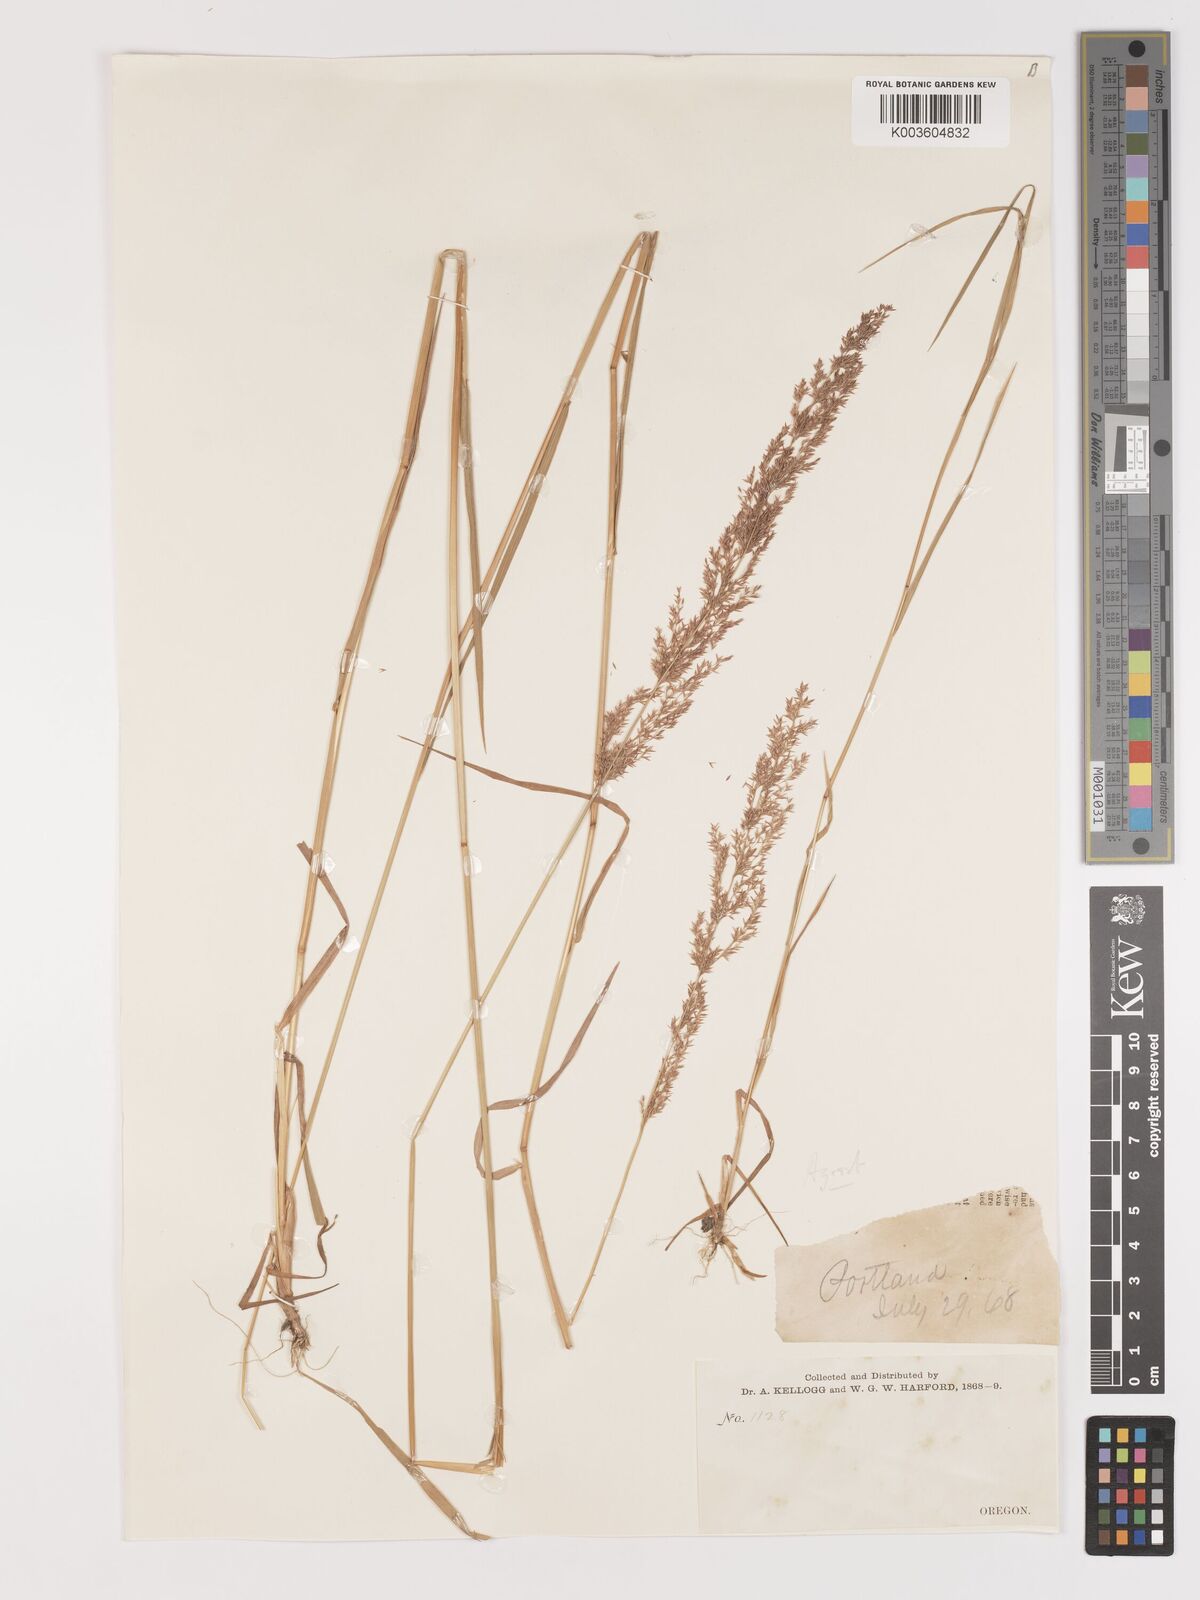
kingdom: Plantae
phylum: Tracheophyta
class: Liliopsida
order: Poales
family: Poaceae
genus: Agrostis
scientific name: Agrostis
